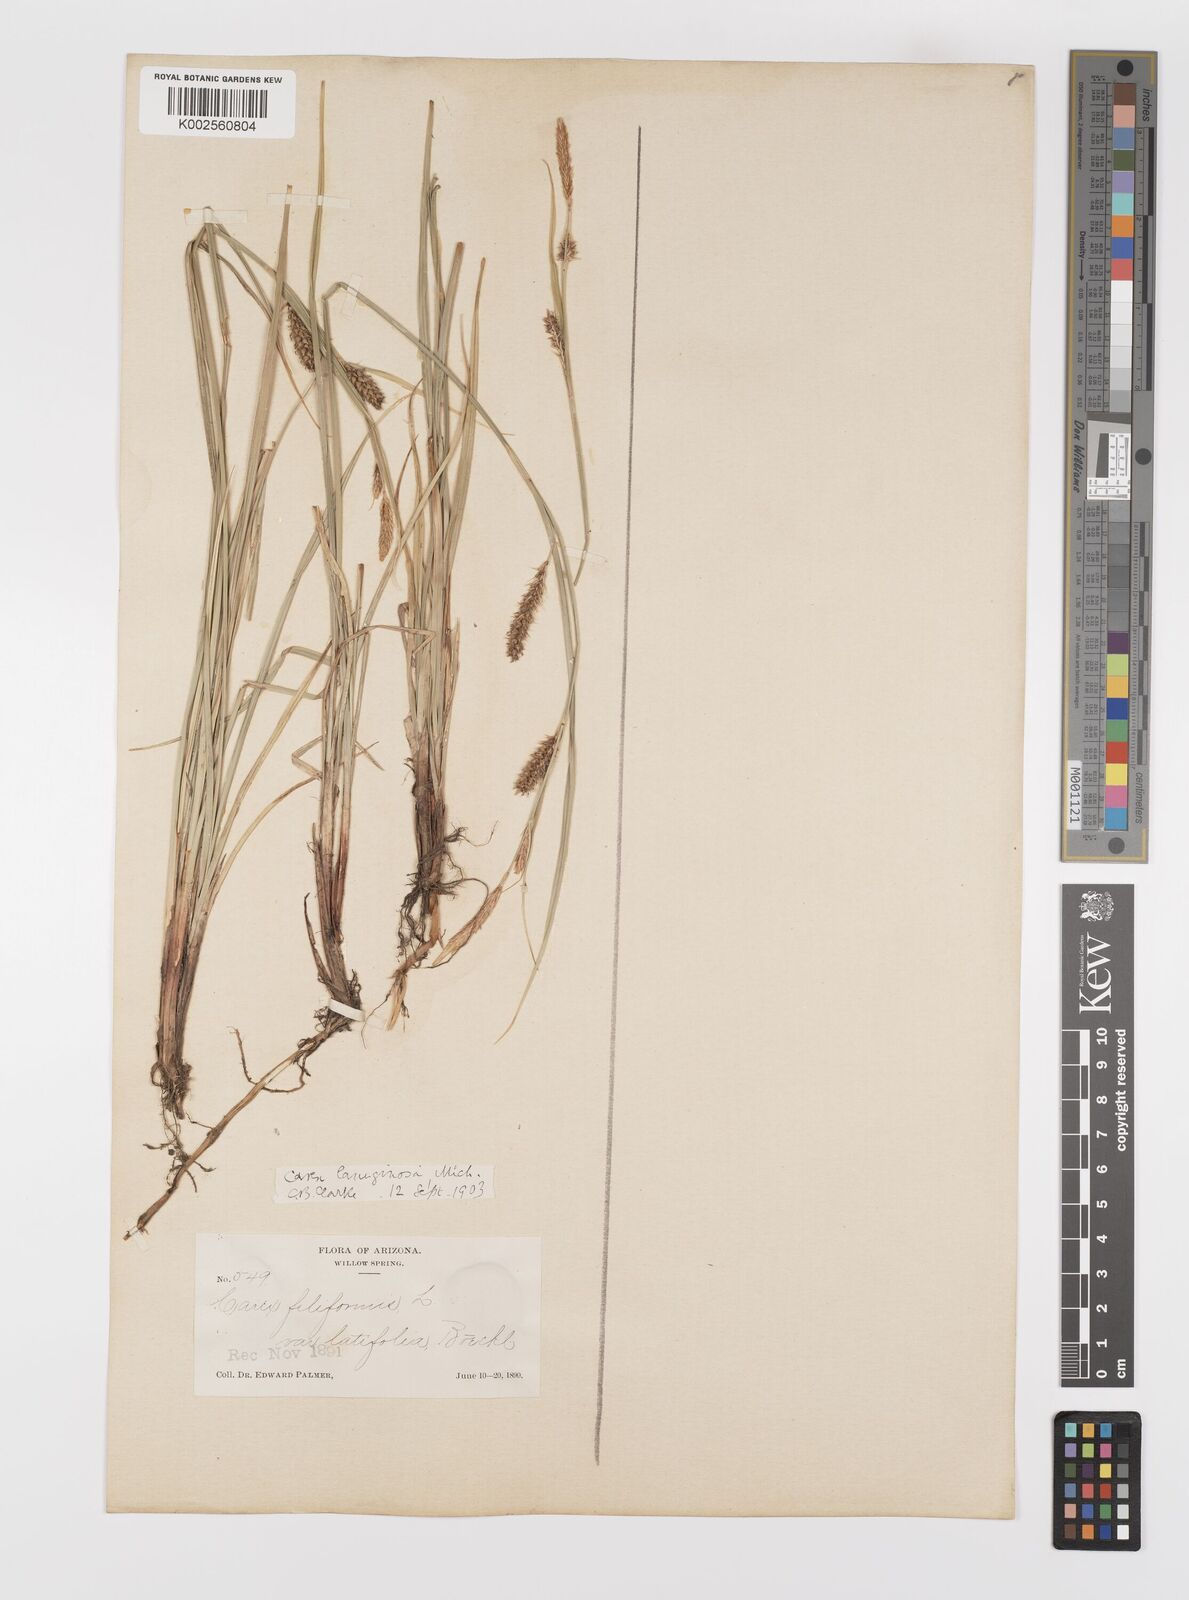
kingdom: Plantae
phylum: Tracheophyta
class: Liliopsida
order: Poales
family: Cyperaceae
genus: Carex
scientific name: Carex lasiocarpa
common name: Slender sedge
